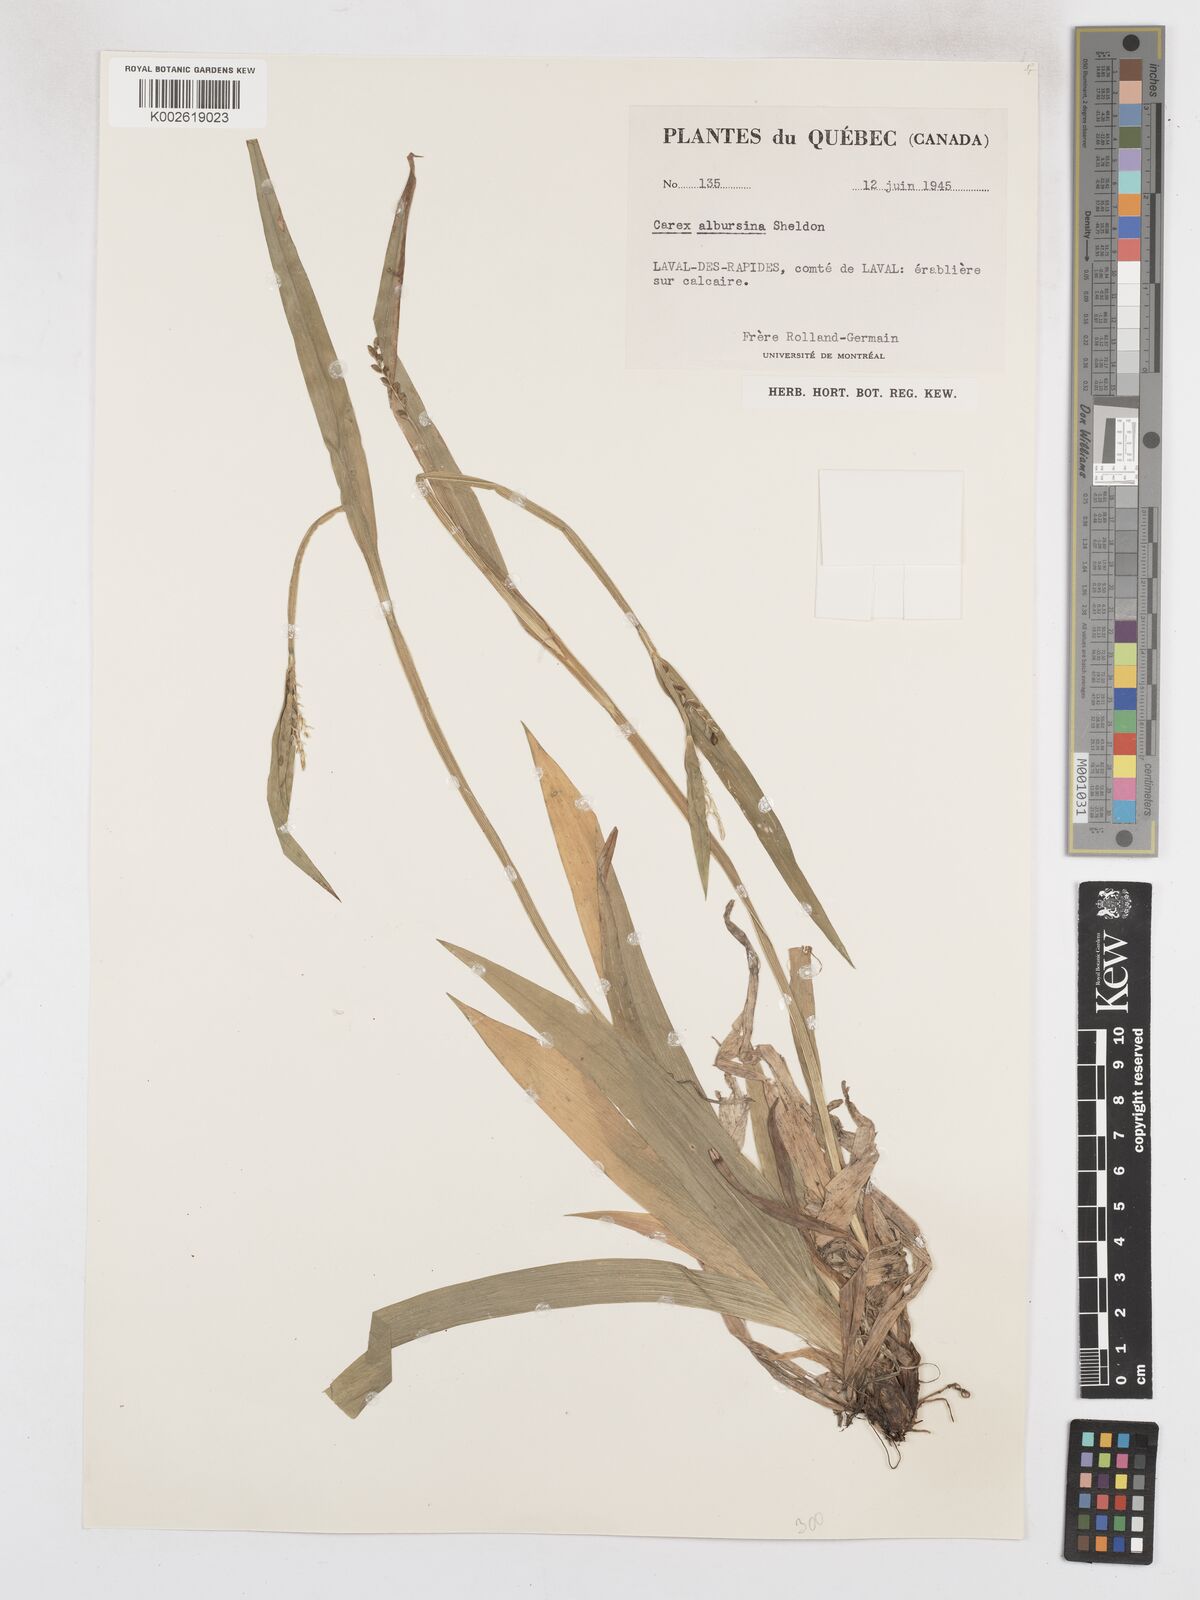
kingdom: Plantae
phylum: Tracheophyta
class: Liliopsida
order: Poales
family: Cyperaceae
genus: Carex
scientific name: Carex albursina
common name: Blunt-scale wood sedge
